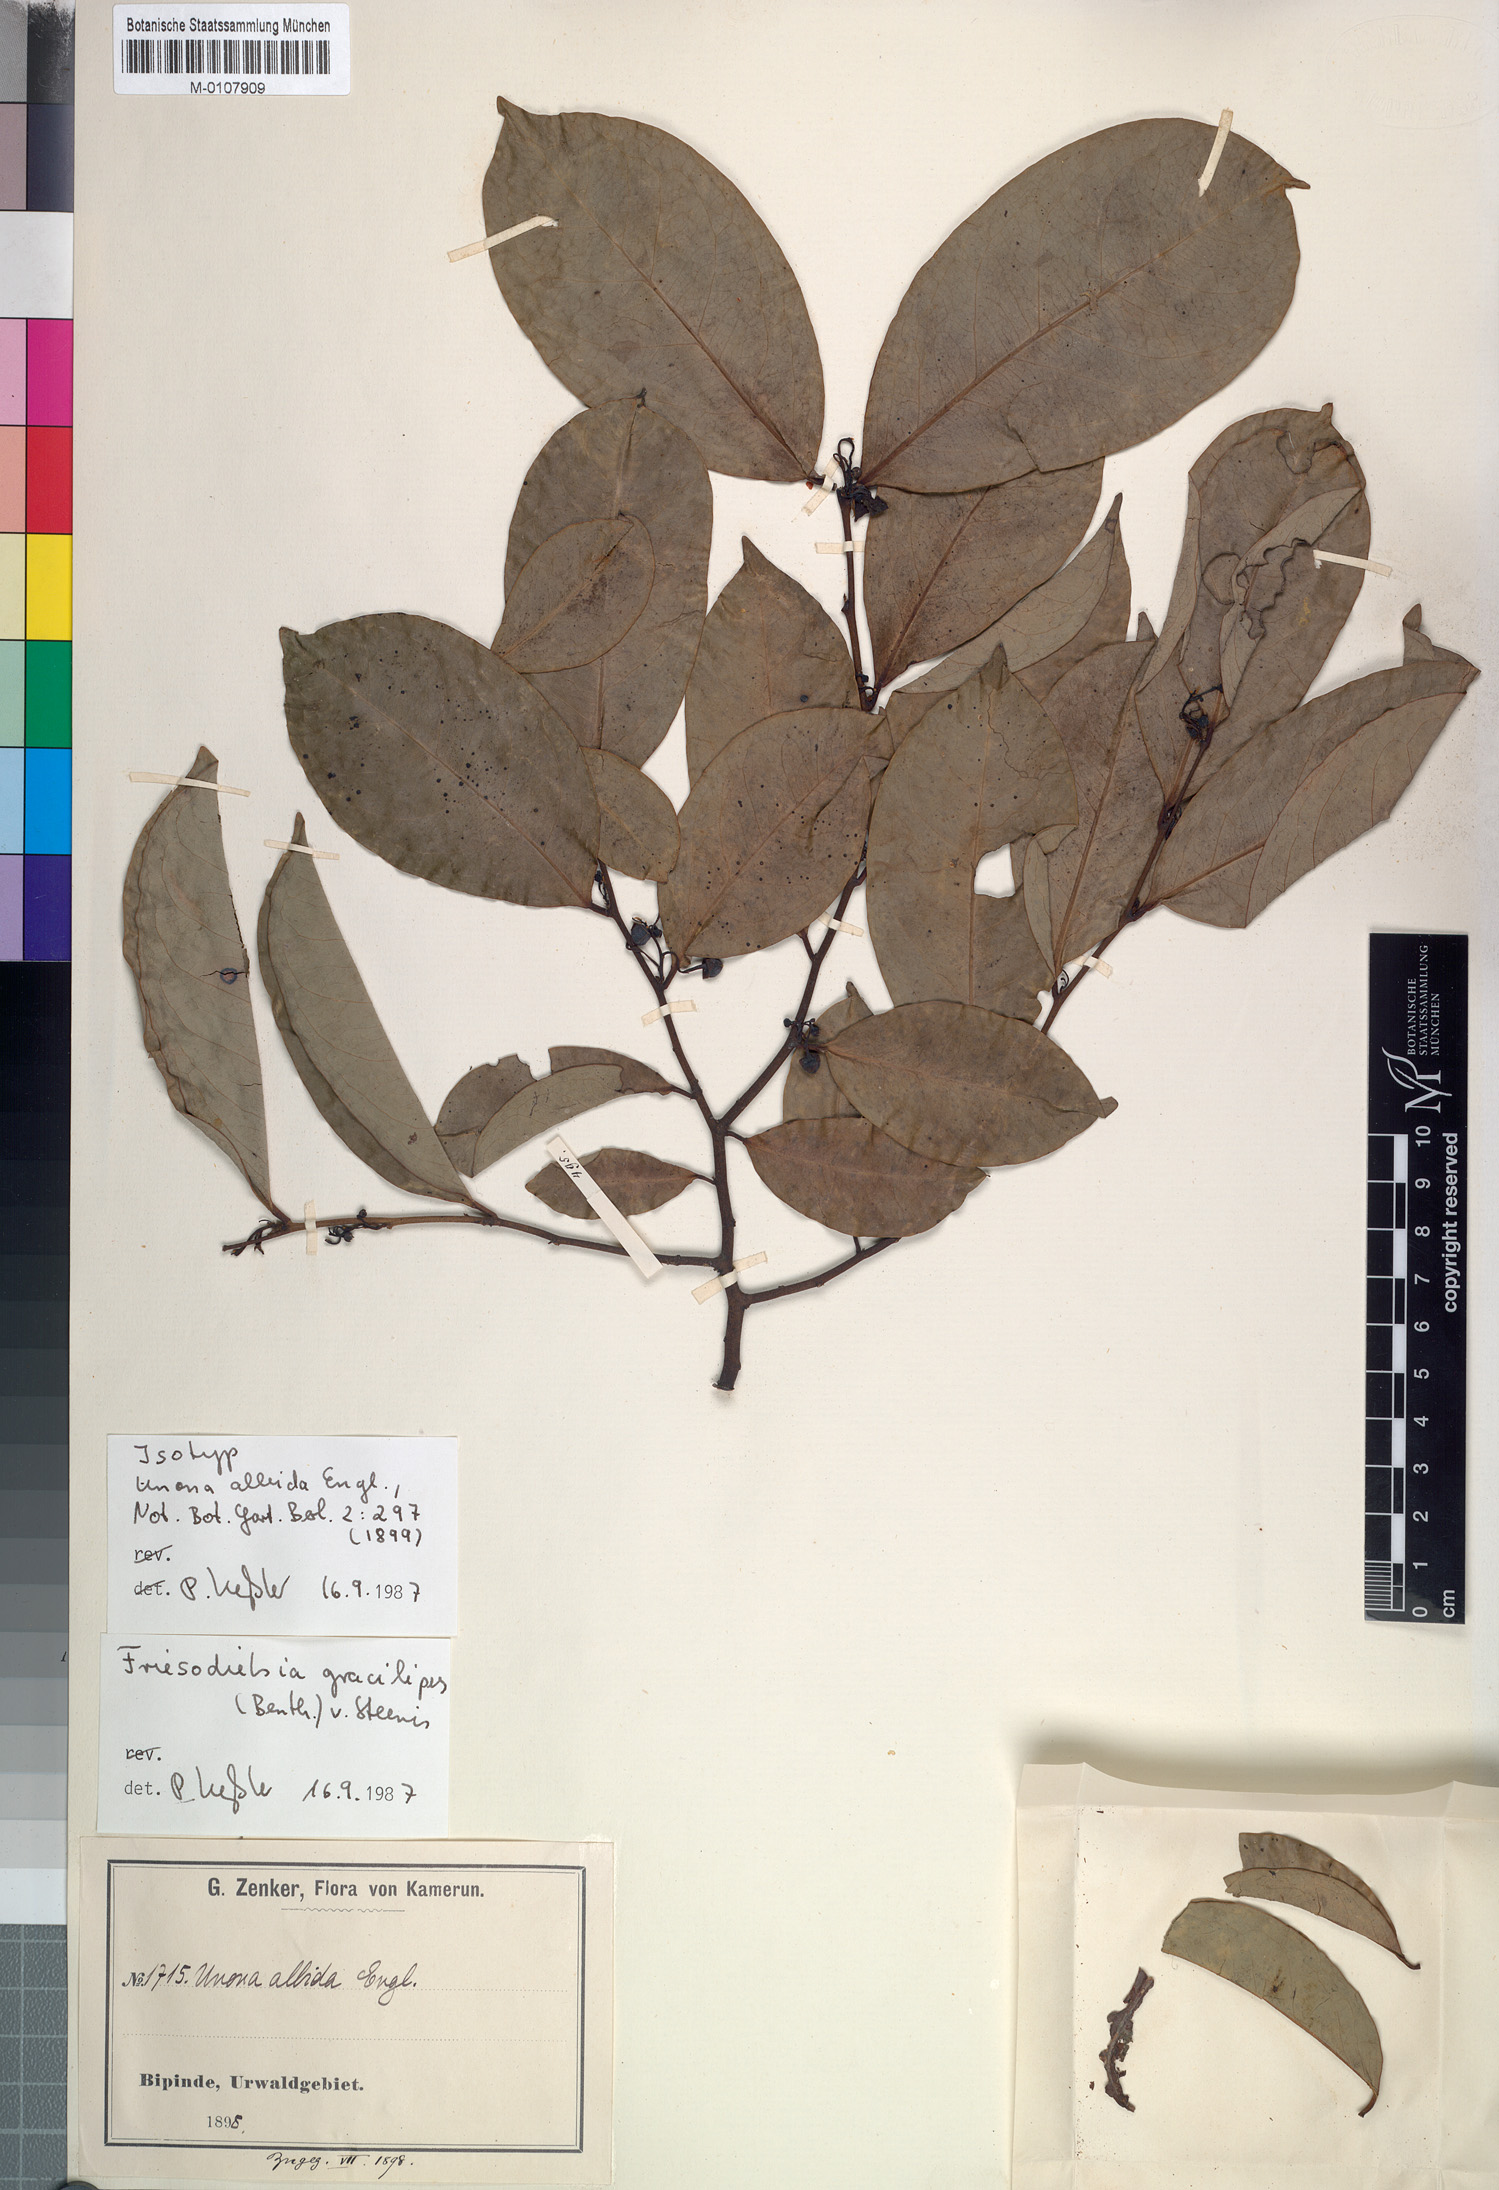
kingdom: Plantae
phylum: Tracheophyta
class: Magnoliopsida
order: Magnoliales
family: Annonaceae
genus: Friesodielsia
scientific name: Friesodielsia gracilipes
